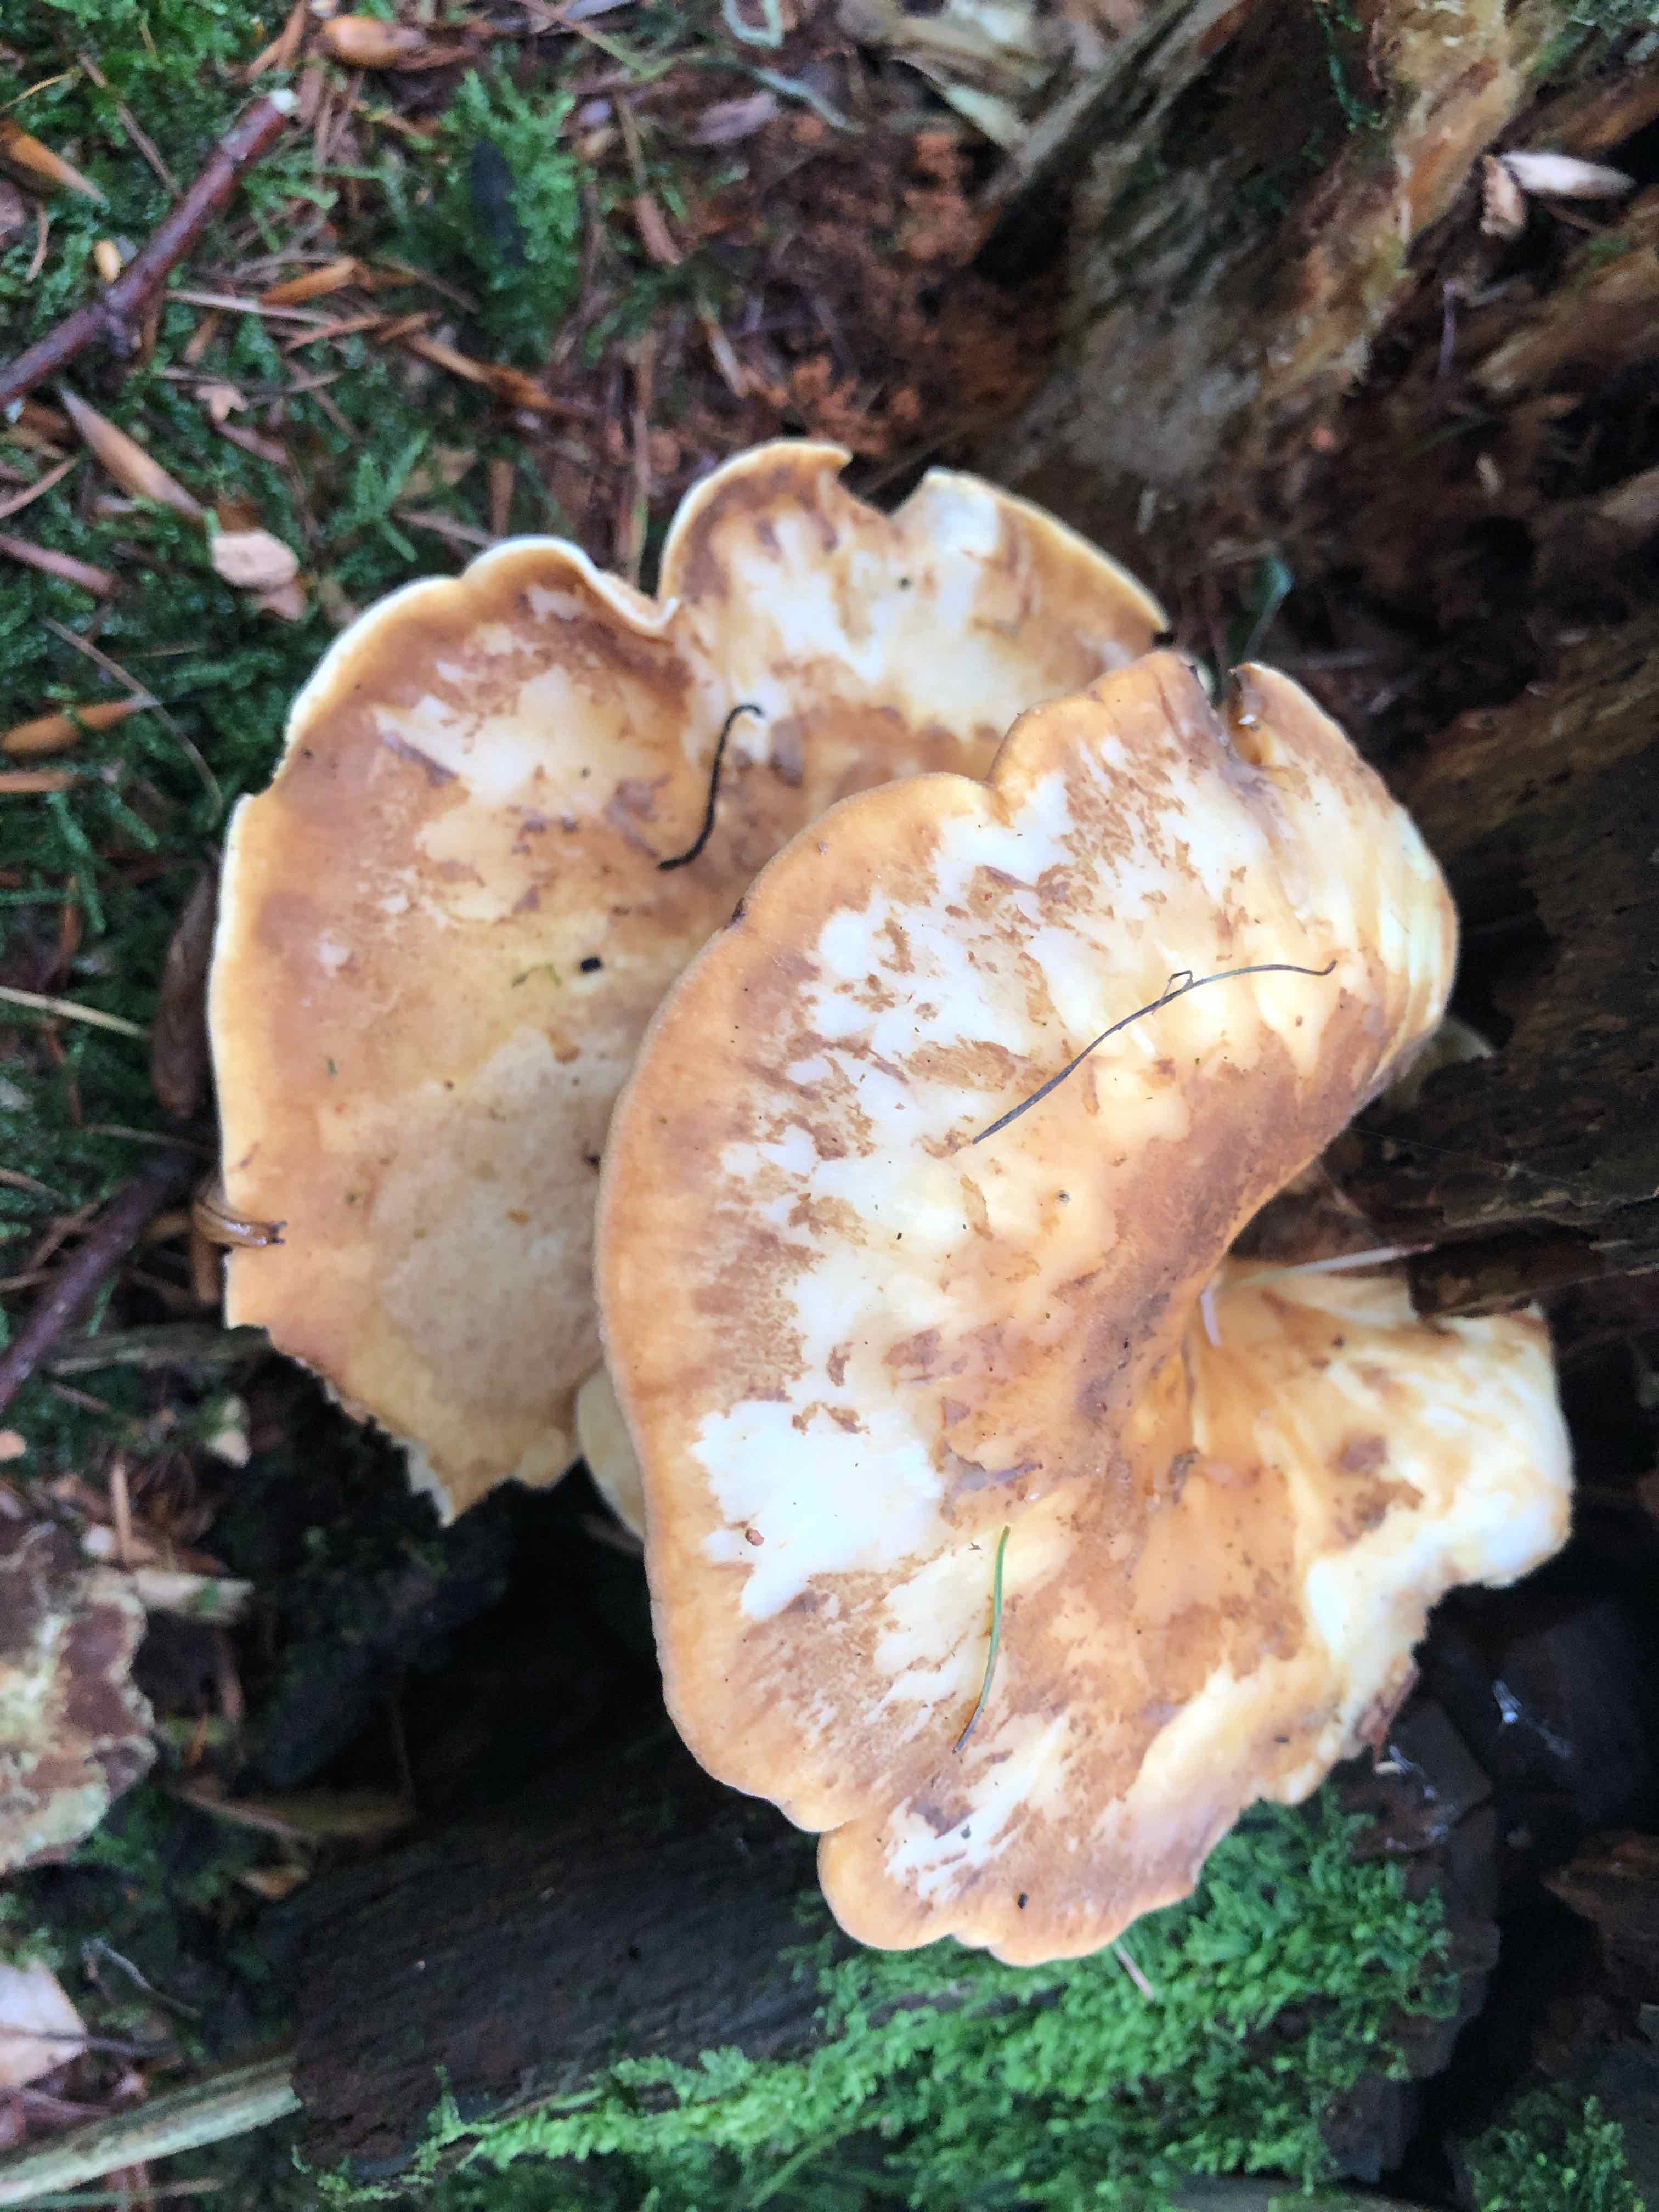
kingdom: Fungi
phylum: Basidiomycota
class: Agaricomycetes
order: Boletales
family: Tapinellaceae
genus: Tapinella
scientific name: Tapinella atrotomentosa
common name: sortfiltet viftesvamp
